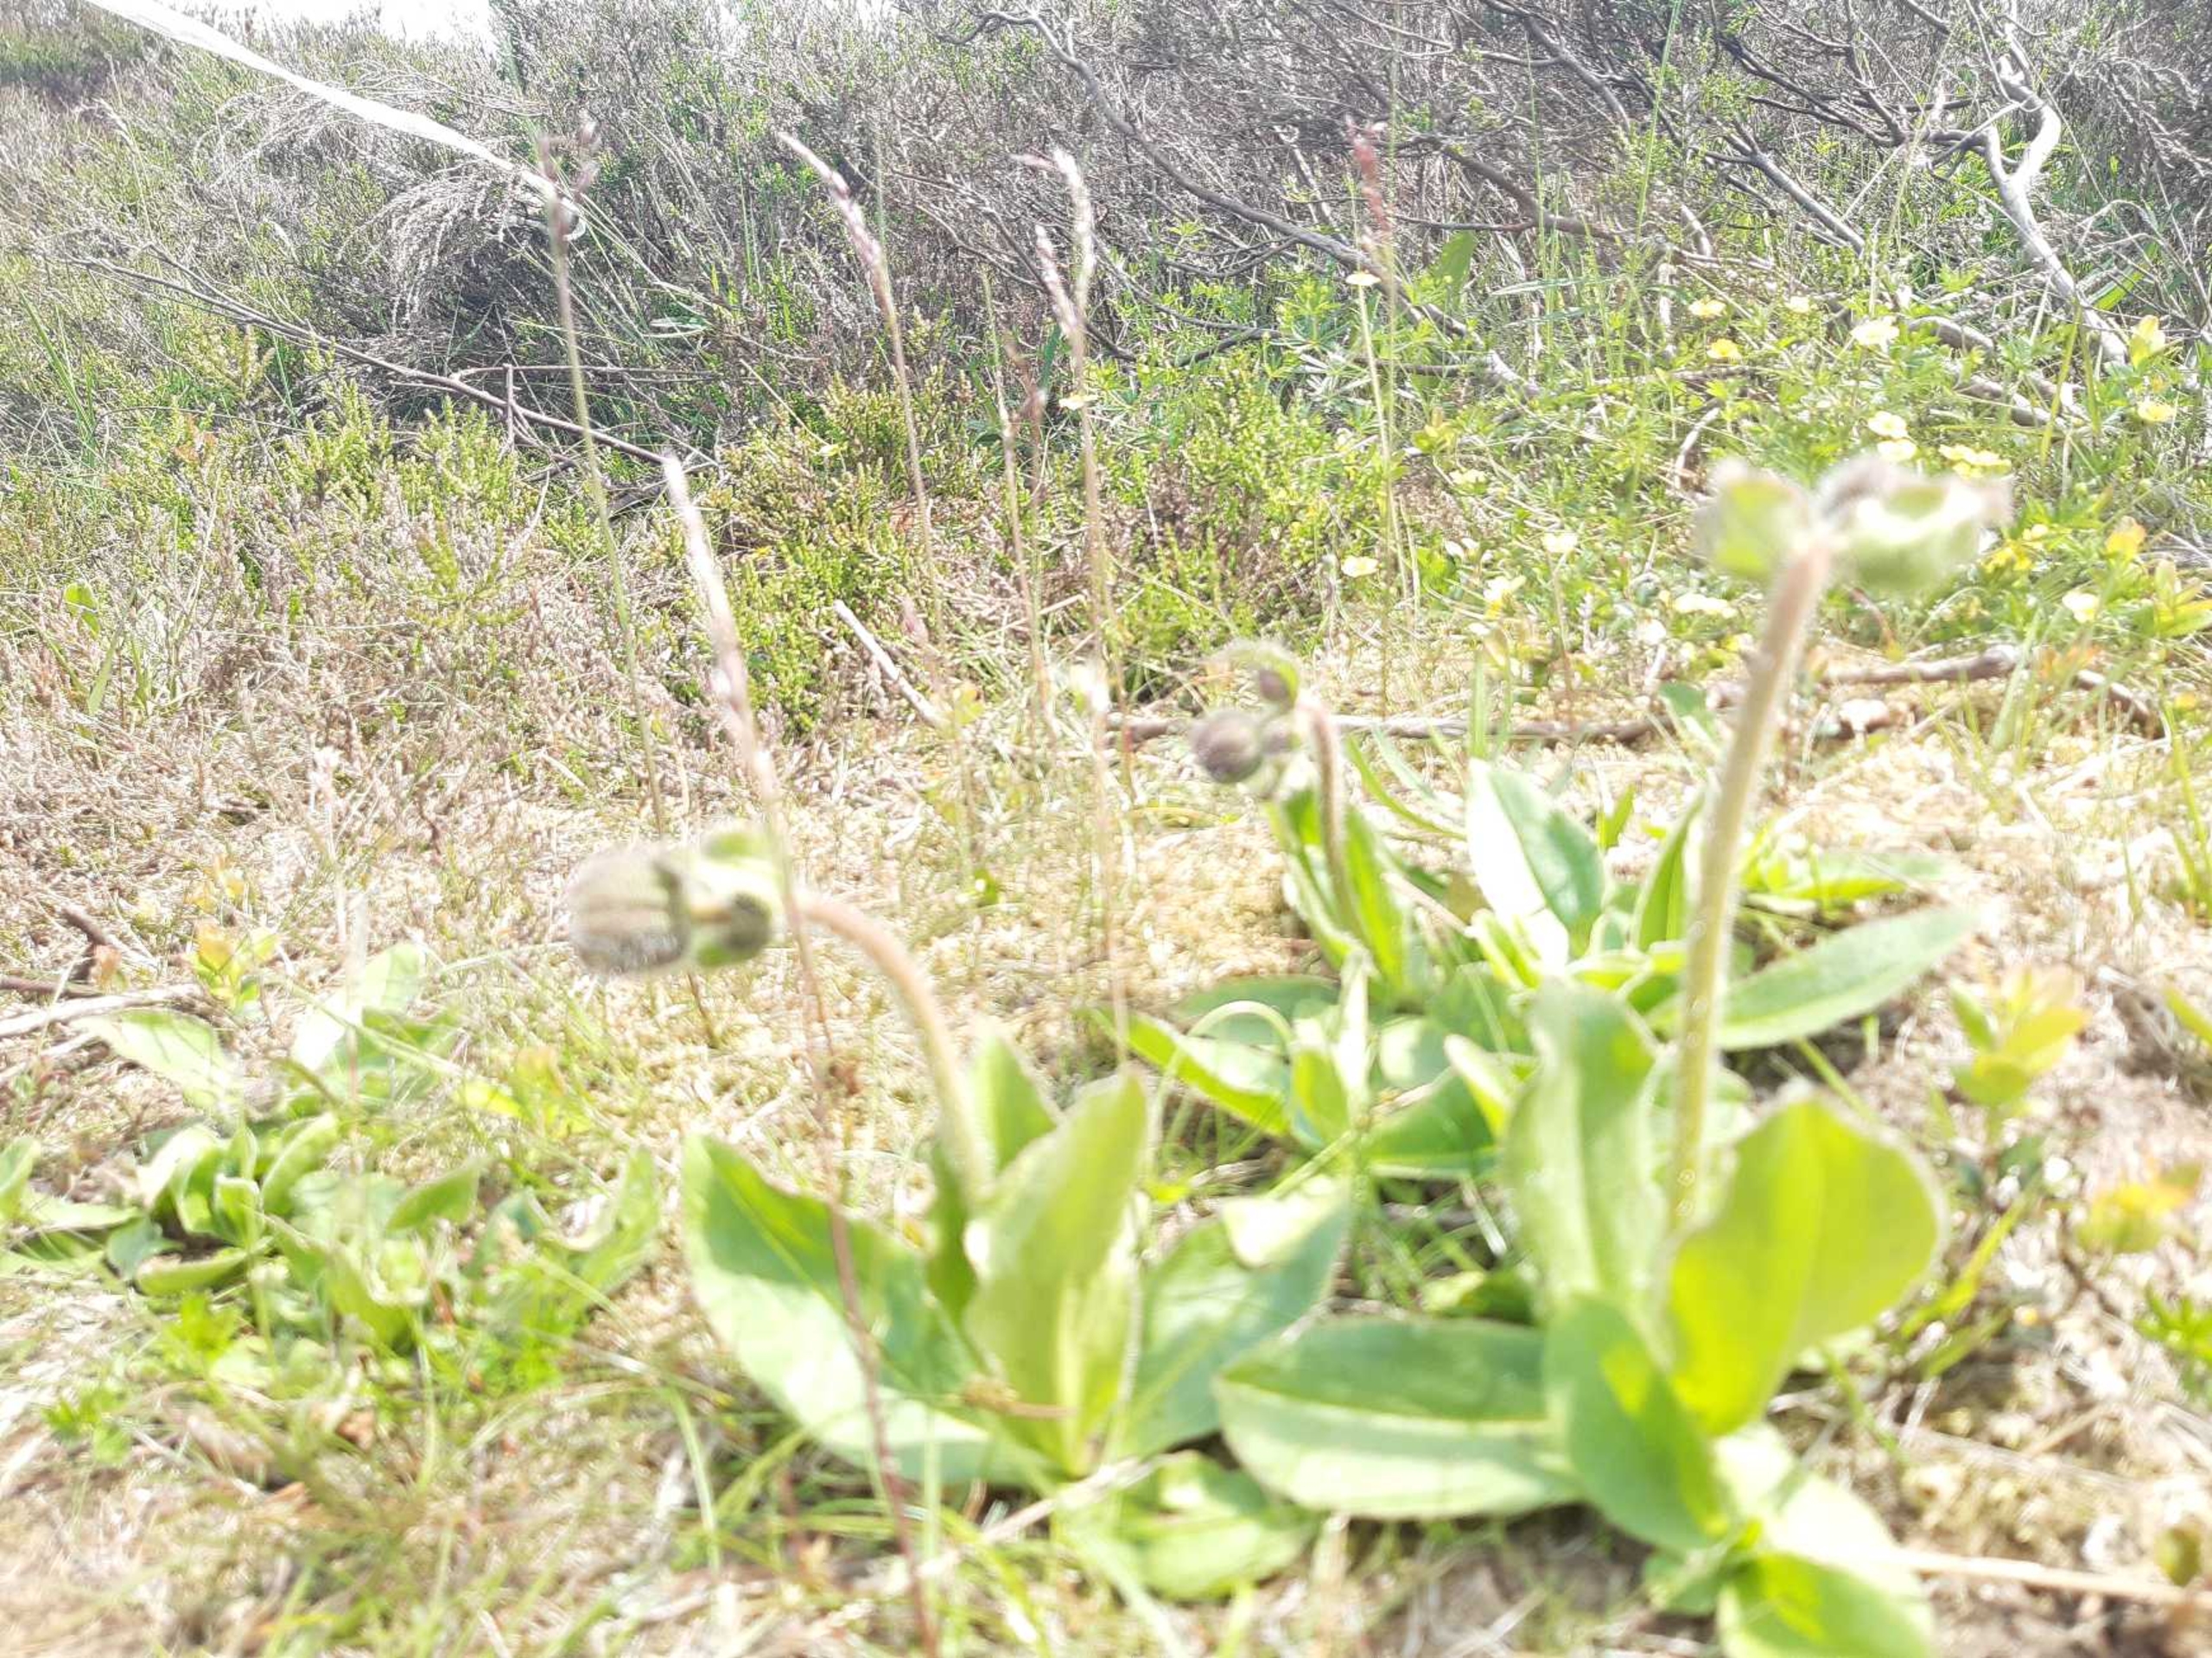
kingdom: Plantae
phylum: Tracheophyta
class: Magnoliopsida
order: Asterales
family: Asteraceae
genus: Arnica
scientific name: Arnica montana
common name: Guldblomme
